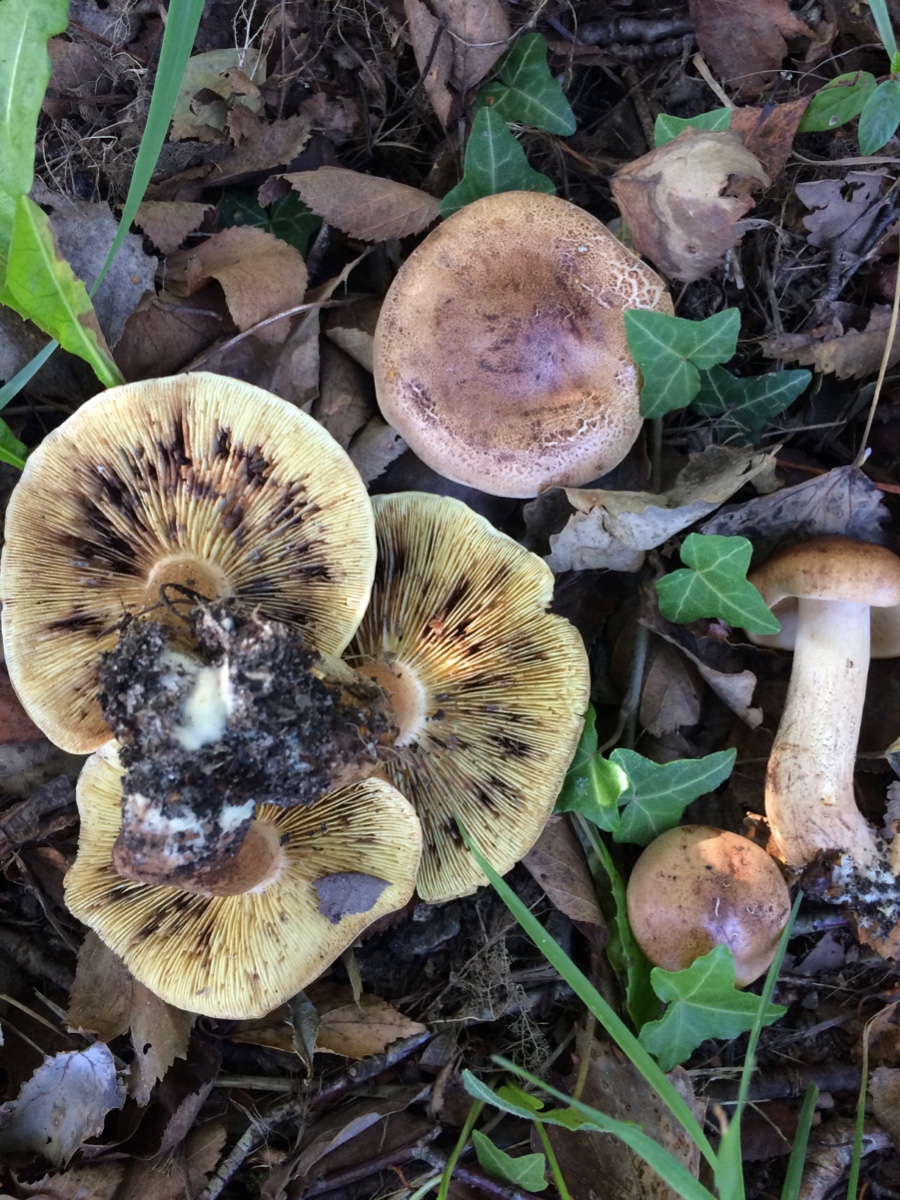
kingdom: Fungi
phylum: Basidiomycota
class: Agaricomycetes
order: Agaricales
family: Tricholomataceae
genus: Tricholoma
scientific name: Tricholoma fulvum
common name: birke-ridderhat
